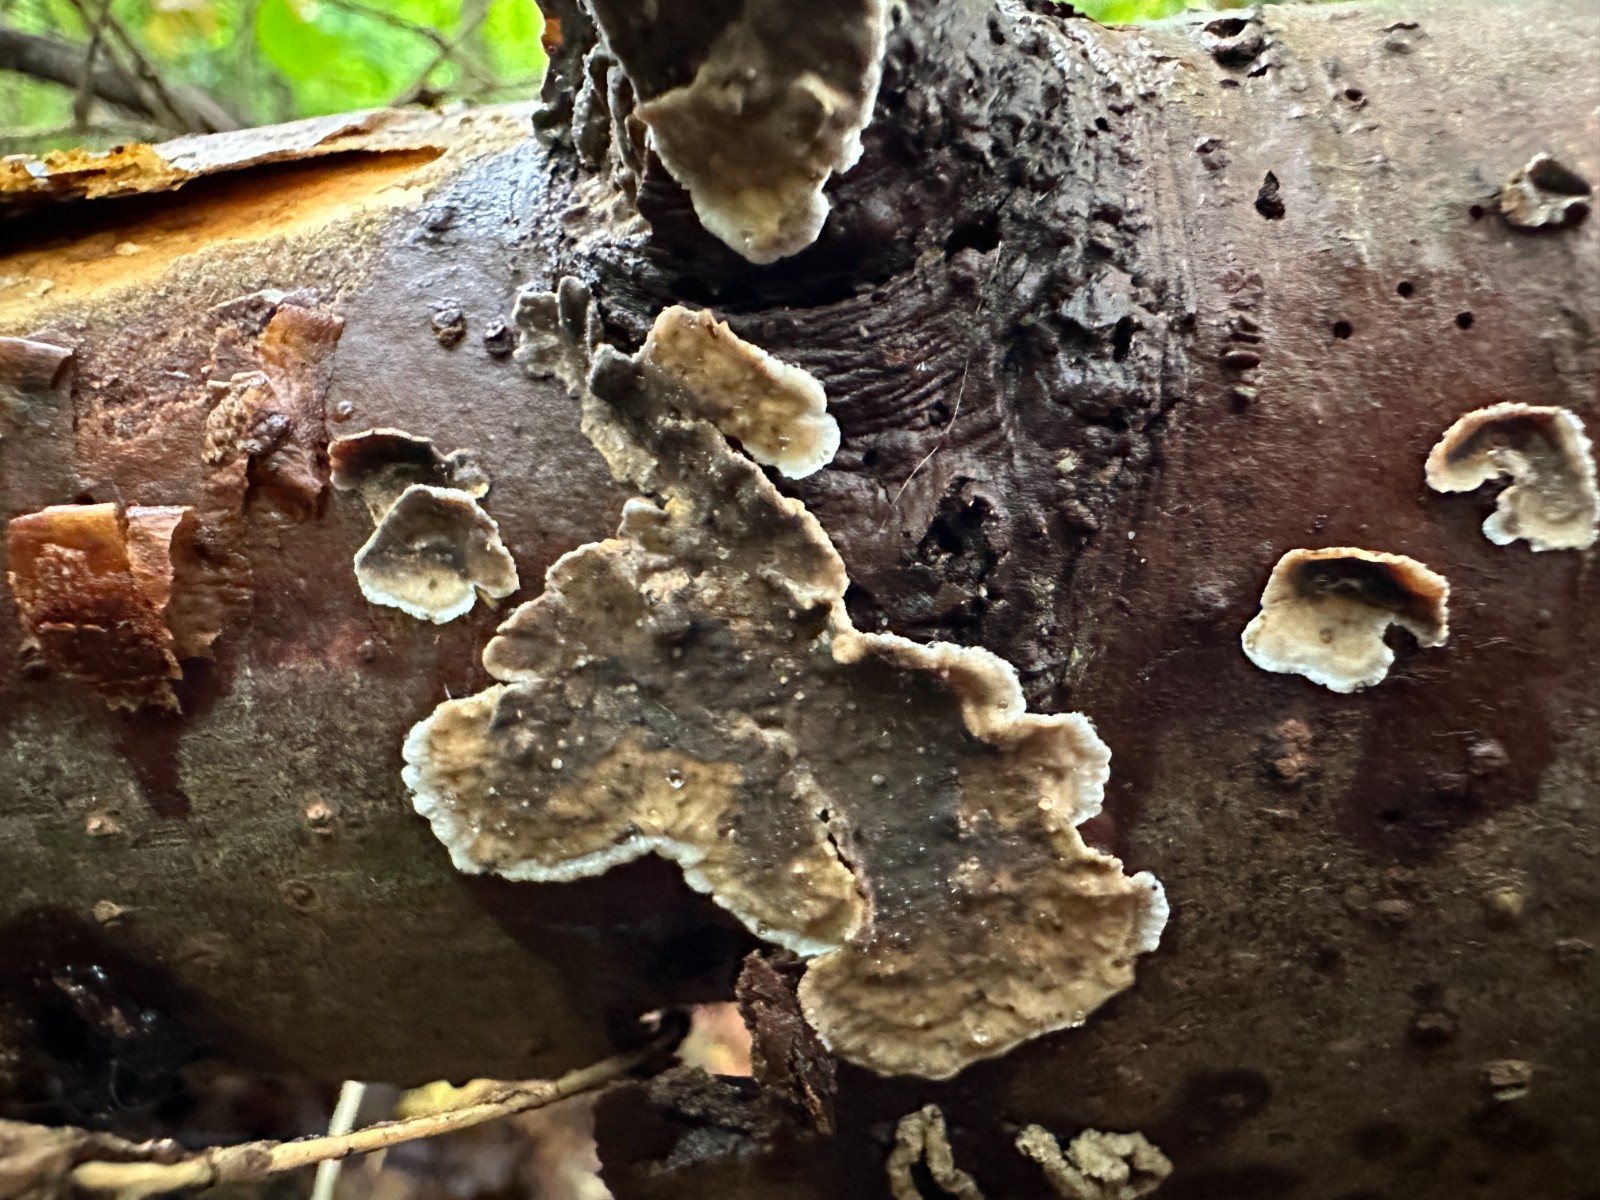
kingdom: Fungi
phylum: Basidiomycota
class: Agaricomycetes
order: Russulales
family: Stereaceae
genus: Stereum
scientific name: Stereum sanguinolentum
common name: blødende lædersvamp
